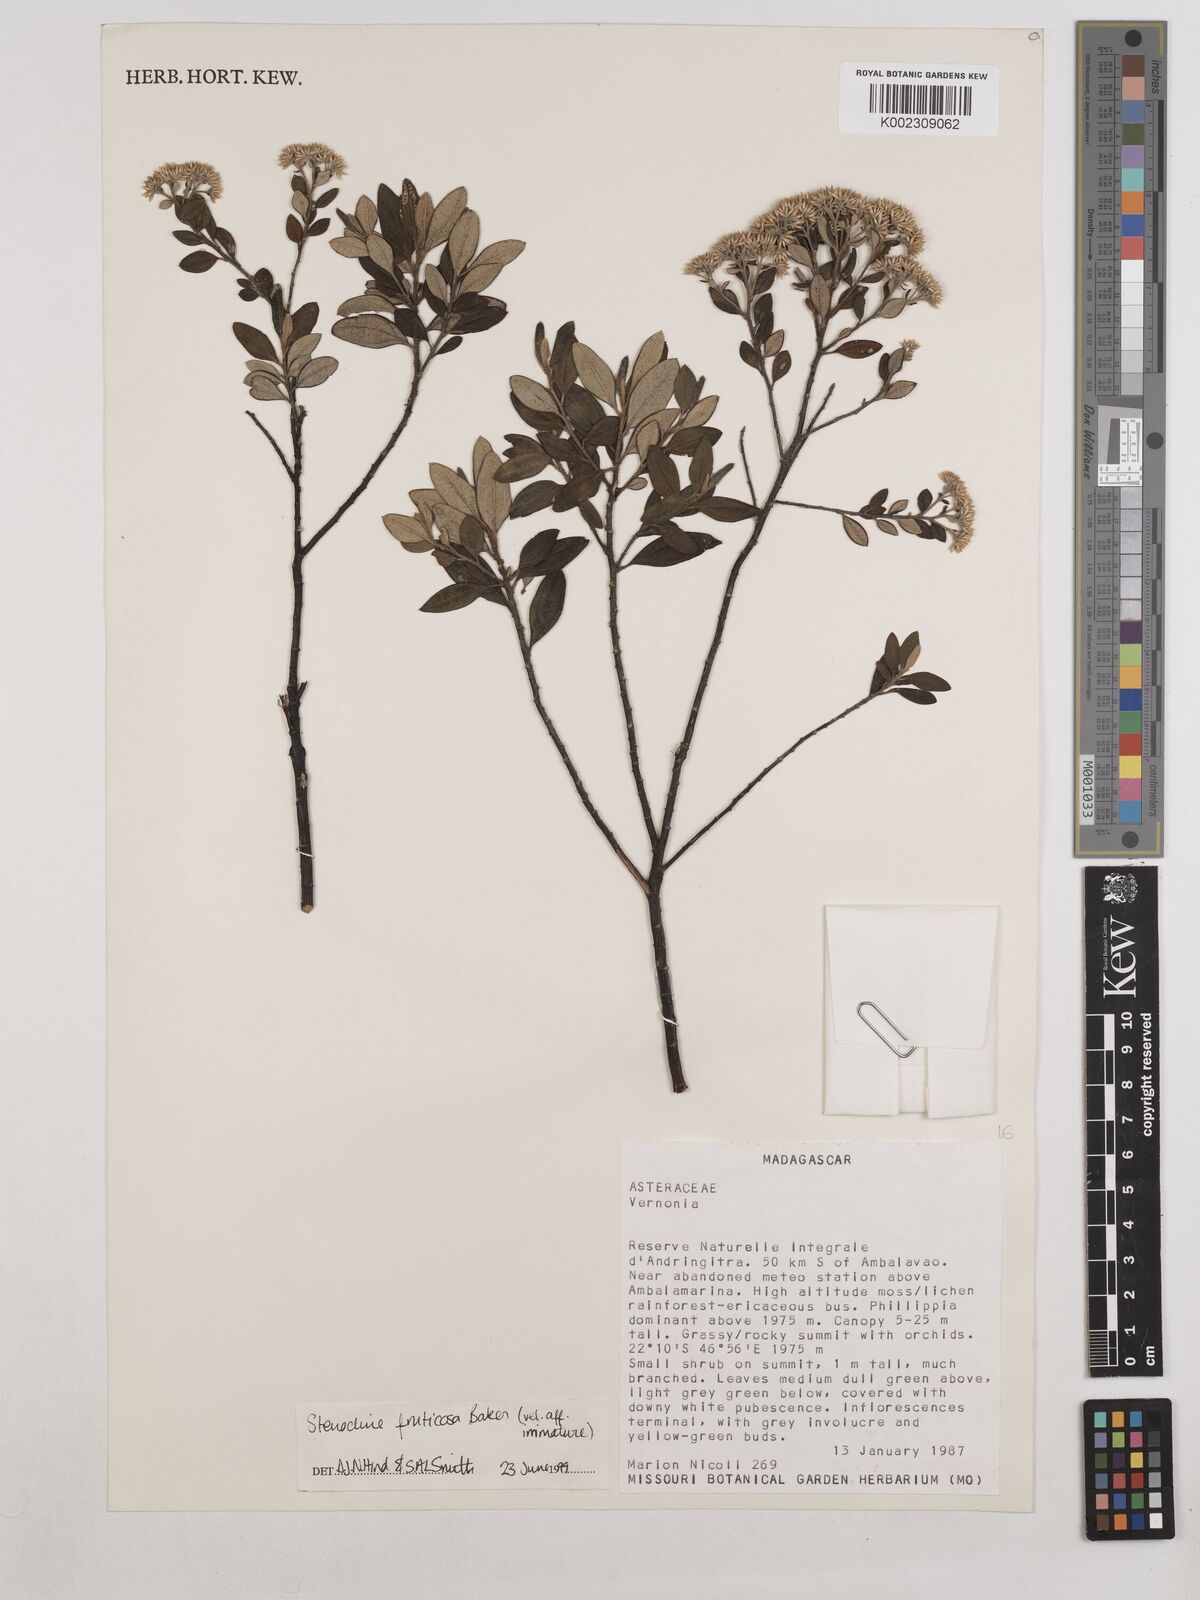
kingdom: Plantae
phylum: Tracheophyta
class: Magnoliopsida
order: Asterales
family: Asteraceae
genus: Helichrysum
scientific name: Helichrysum baronii
